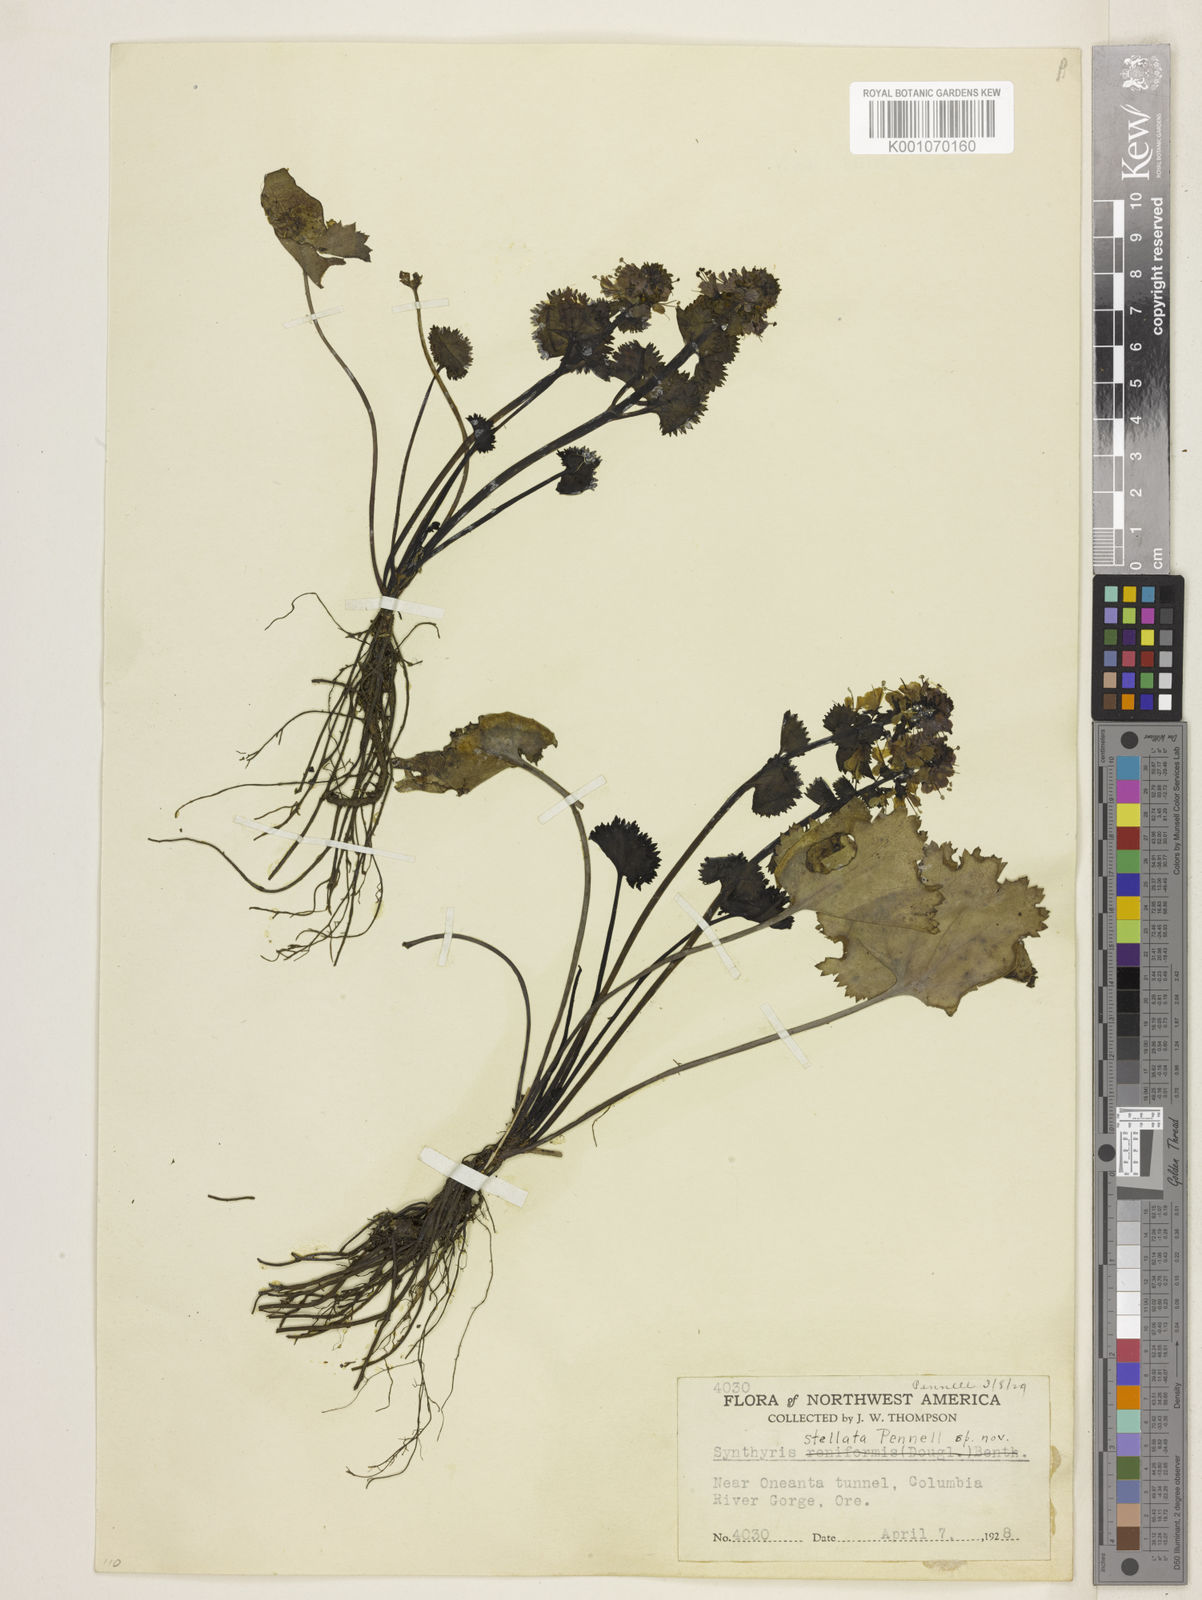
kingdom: Plantae
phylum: Tracheophyta
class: Magnoliopsida
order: Lamiales
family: Plantaginaceae
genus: Synthyris
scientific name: Synthyris missurica
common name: Kitten-tails
